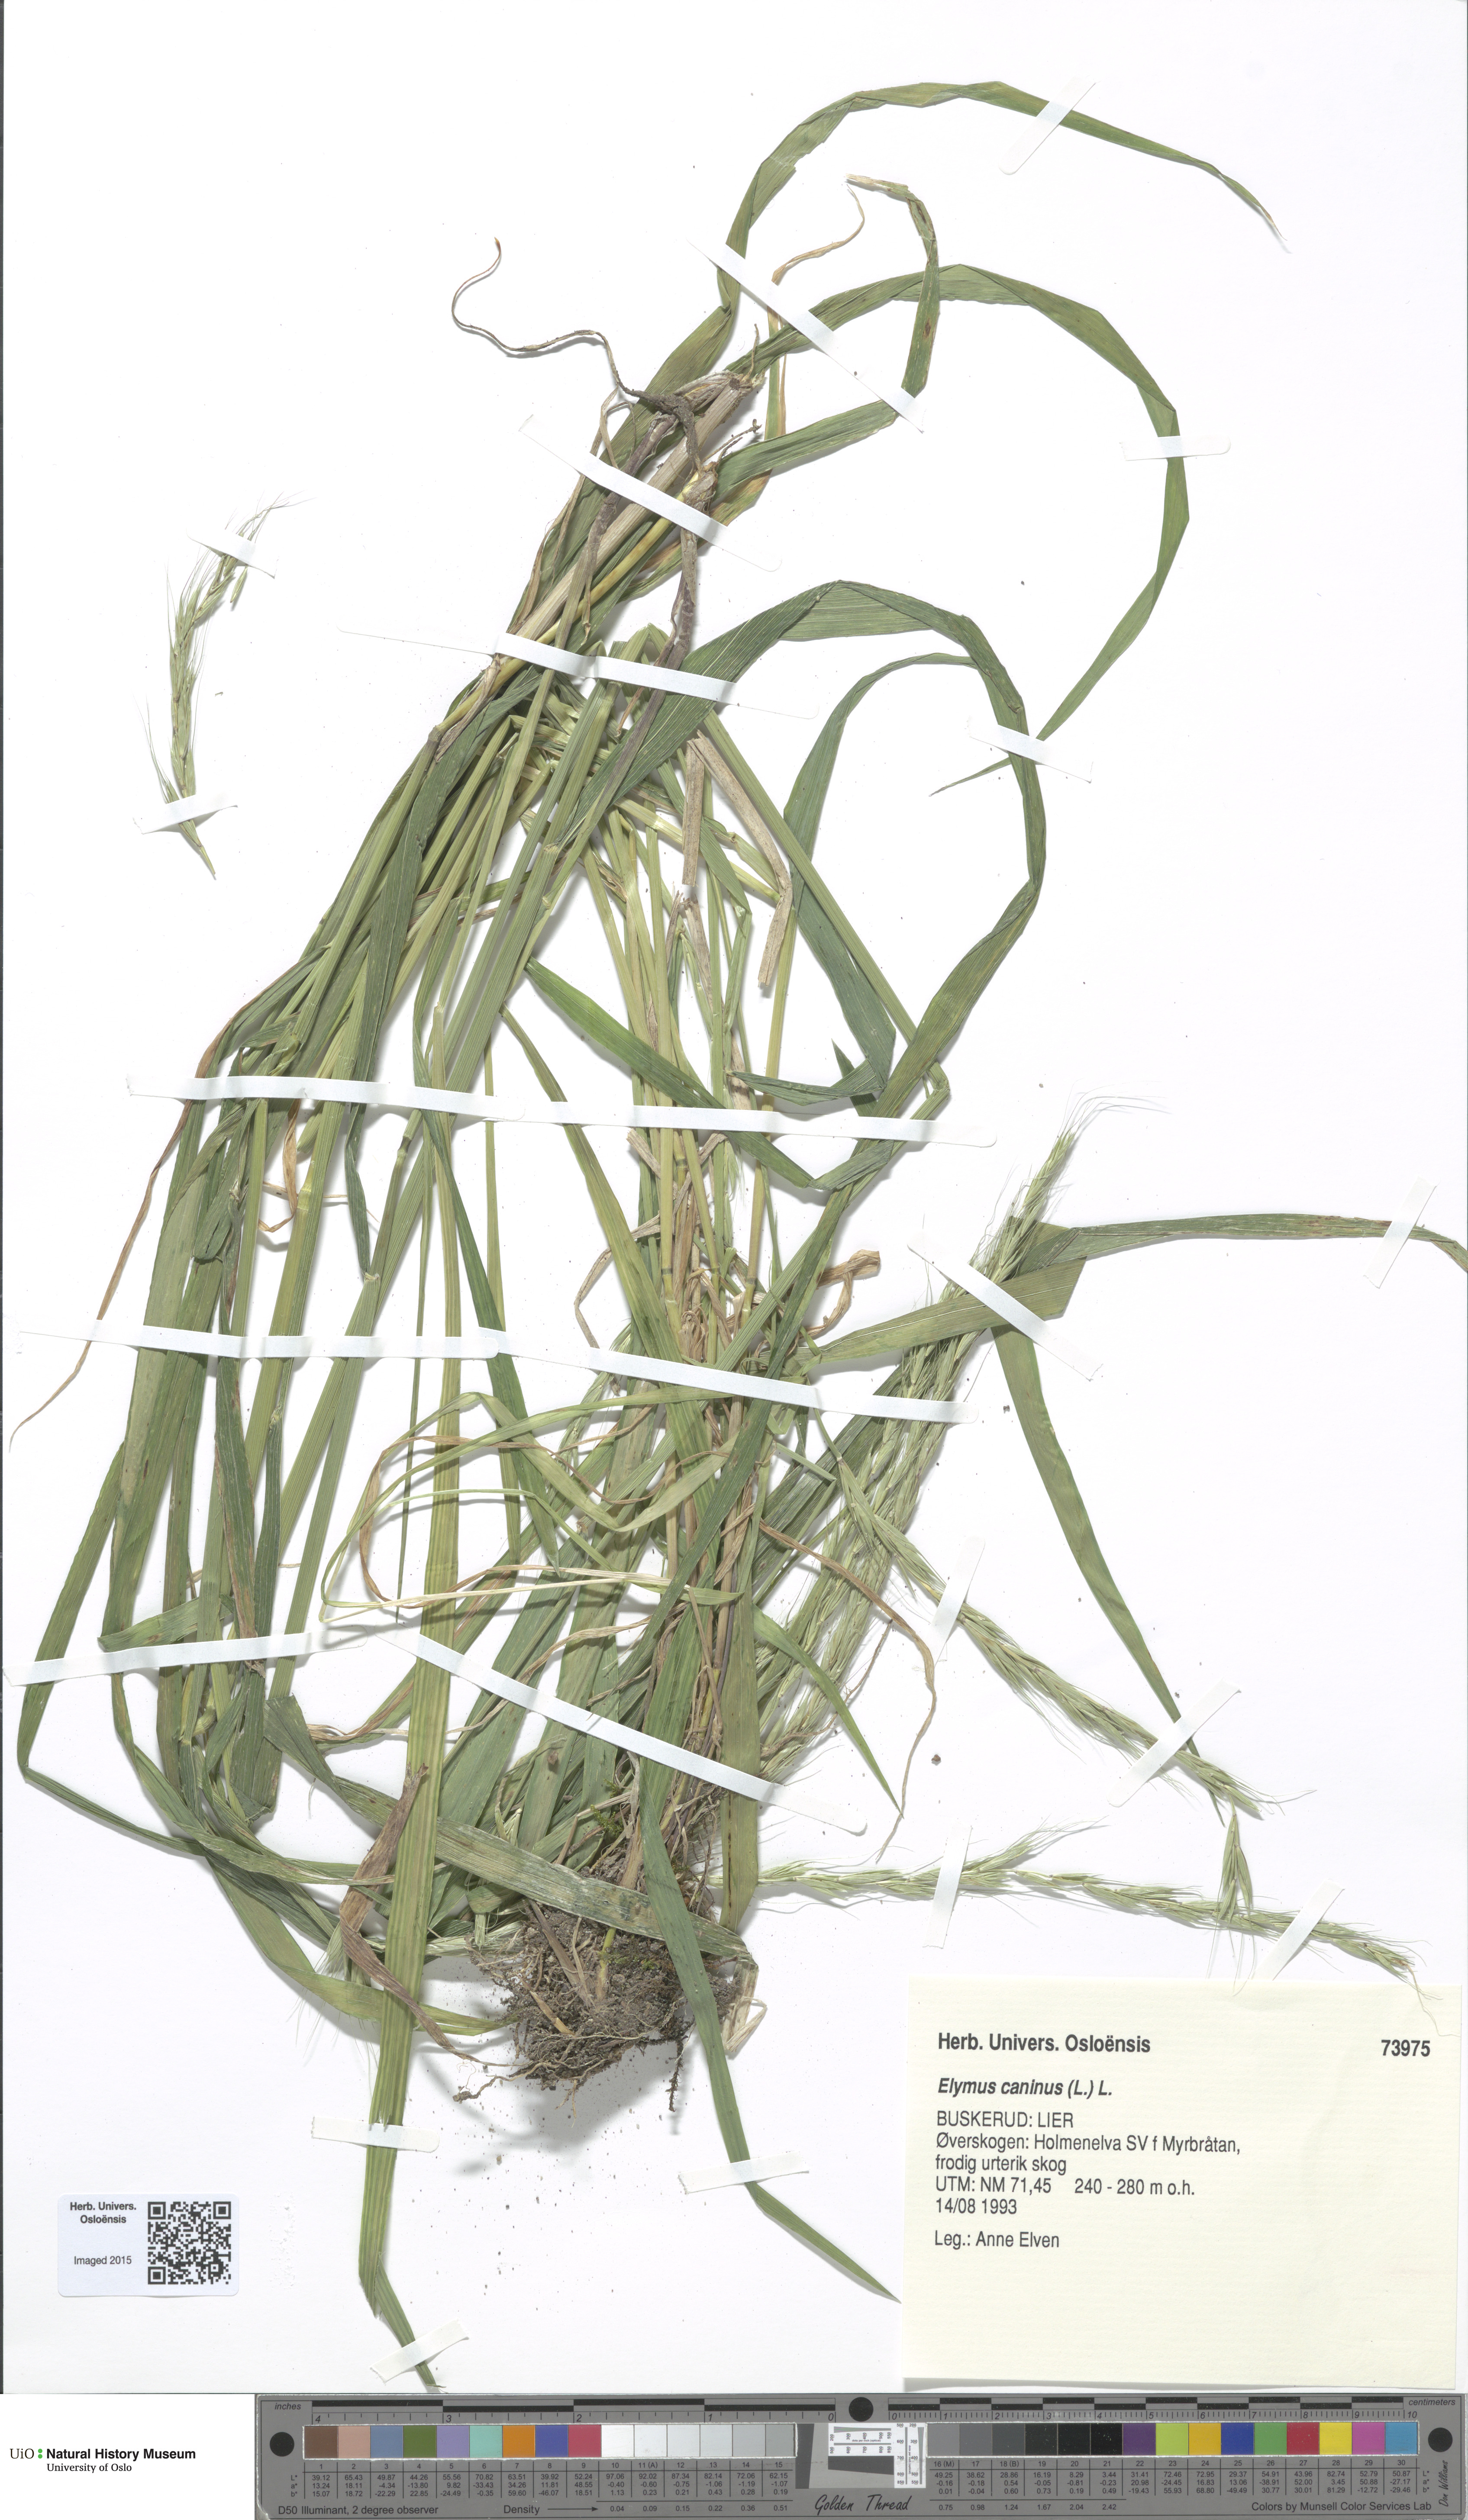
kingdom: Plantae
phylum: Tracheophyta
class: Liliopsida
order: Poales
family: Poaceae
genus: Elymus
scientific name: Elymus caninus
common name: Bearded couch
